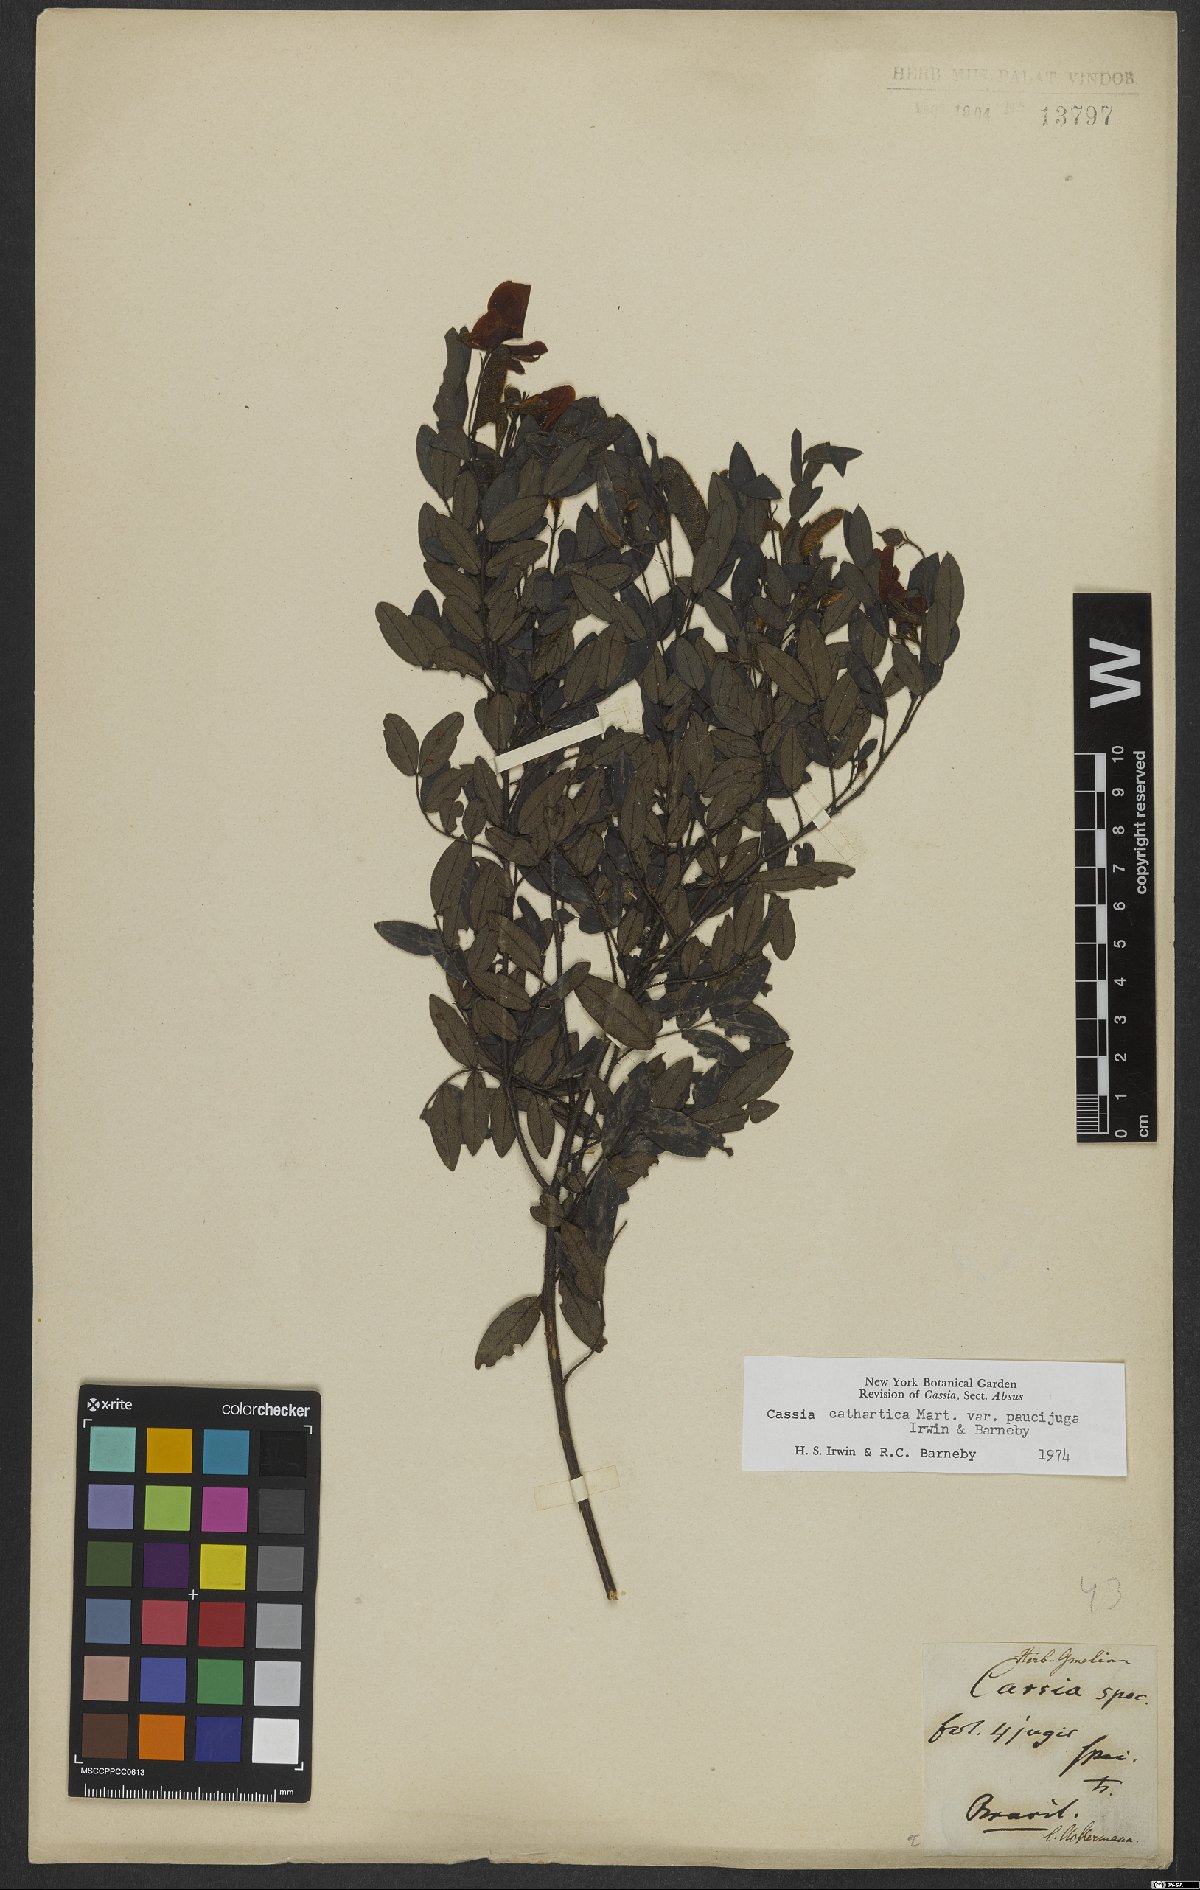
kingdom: Plantae
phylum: Tracheophyta
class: Magnoliopsida
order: Fabales
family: Fabaceae
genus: Chamaecrista
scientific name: Chamaecrista cathartica
